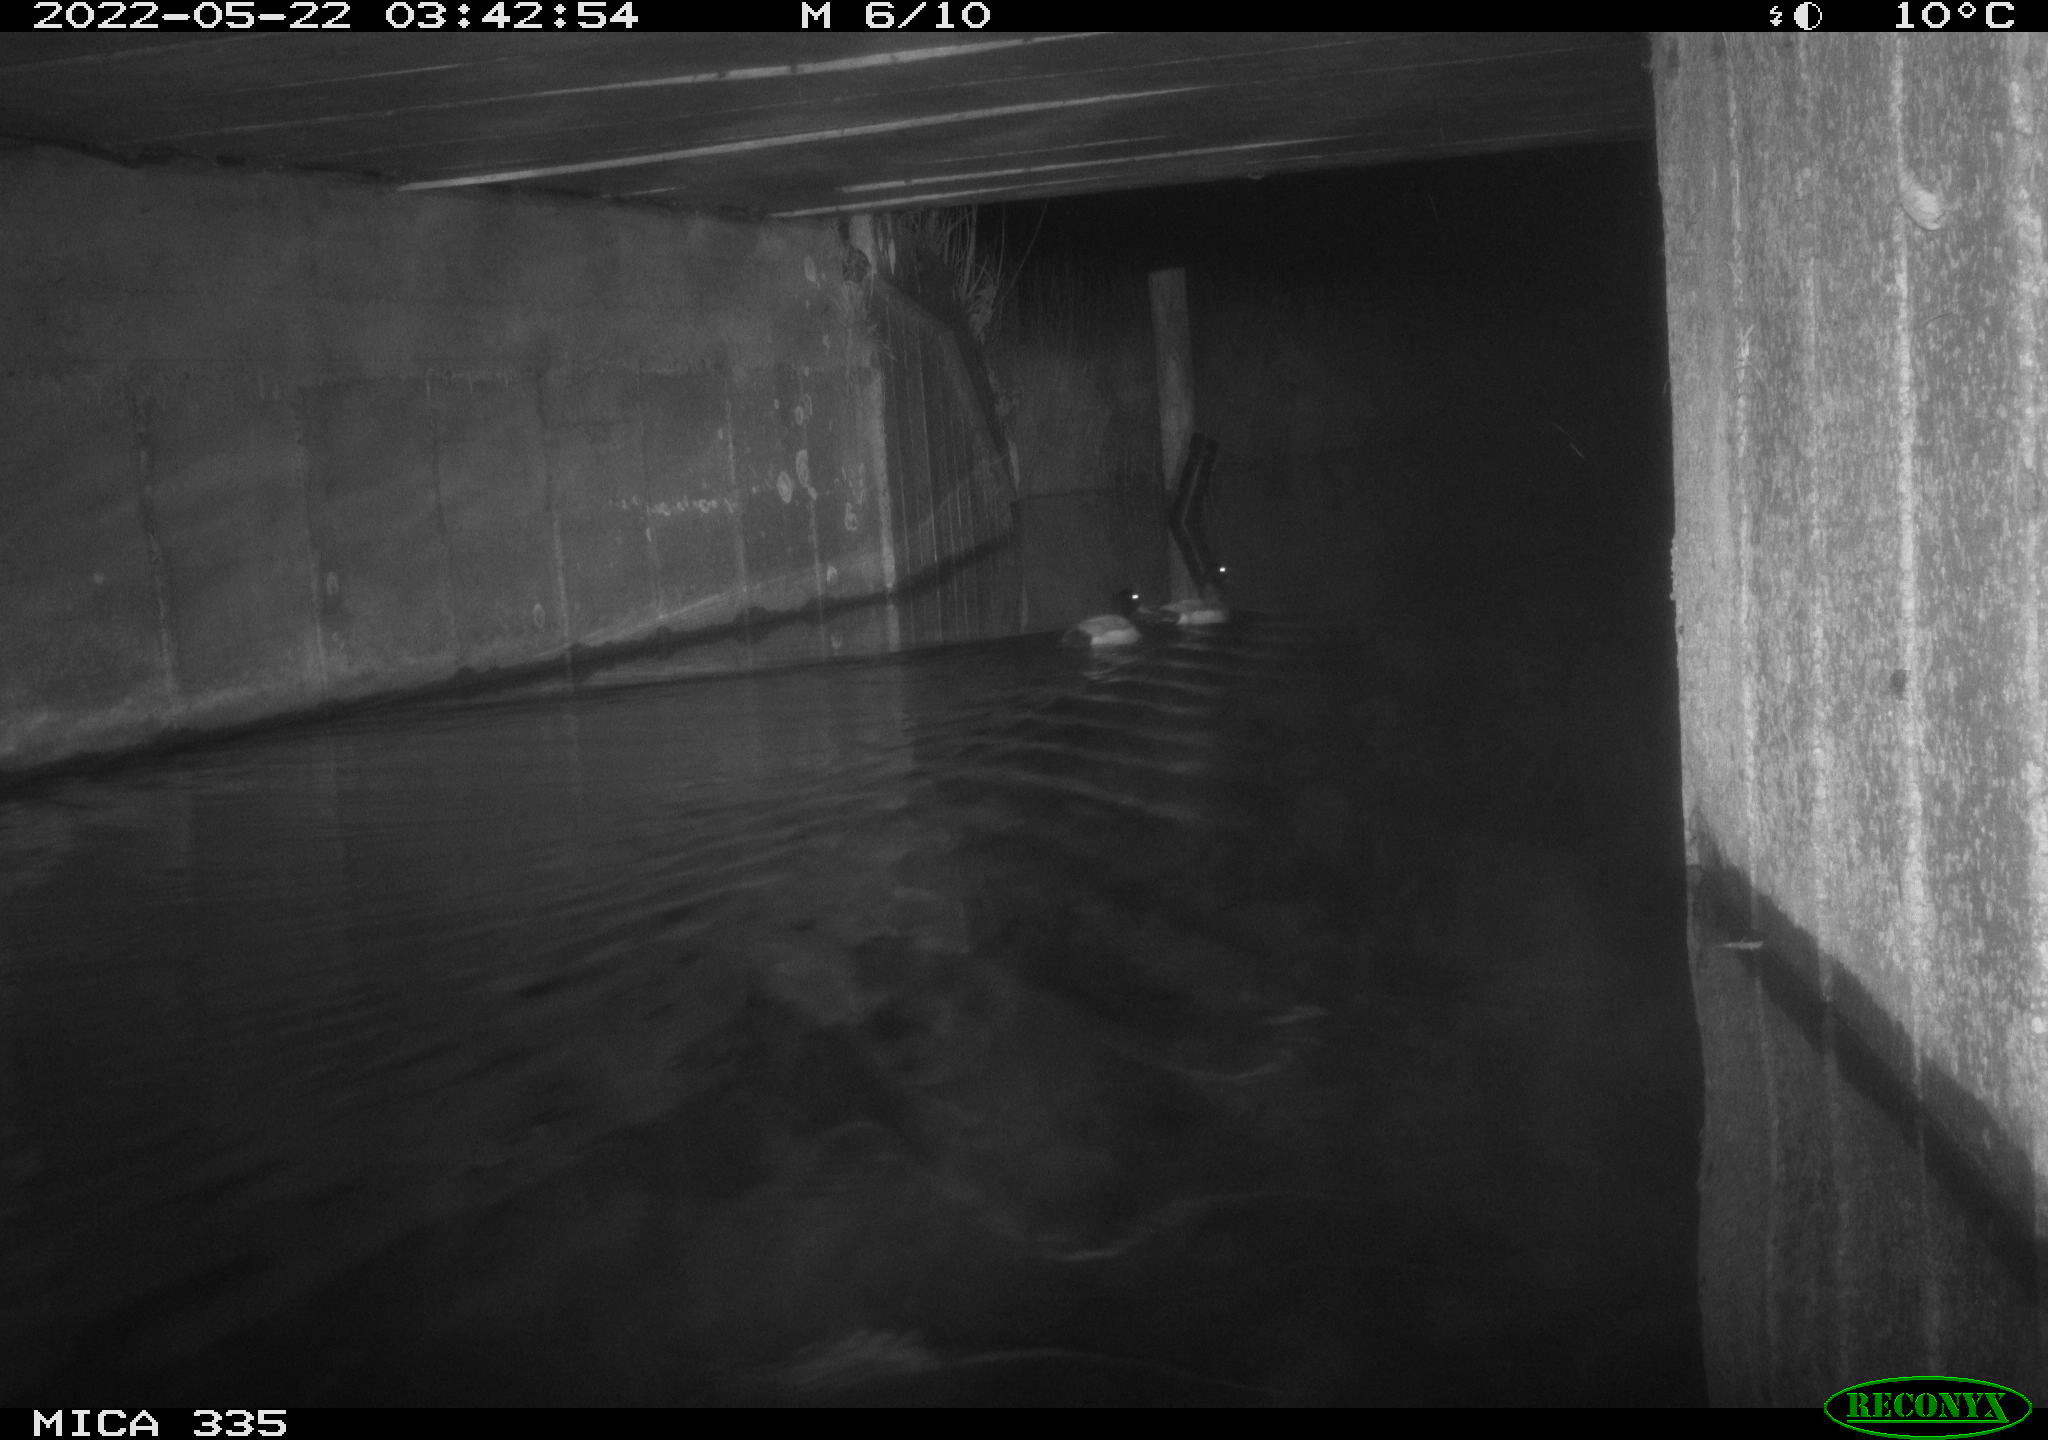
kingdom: Animalia
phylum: Chordata
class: Aves
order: Anseriformes
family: Anatidae
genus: Anas
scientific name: Anas platyrhynchos
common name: Mallard
